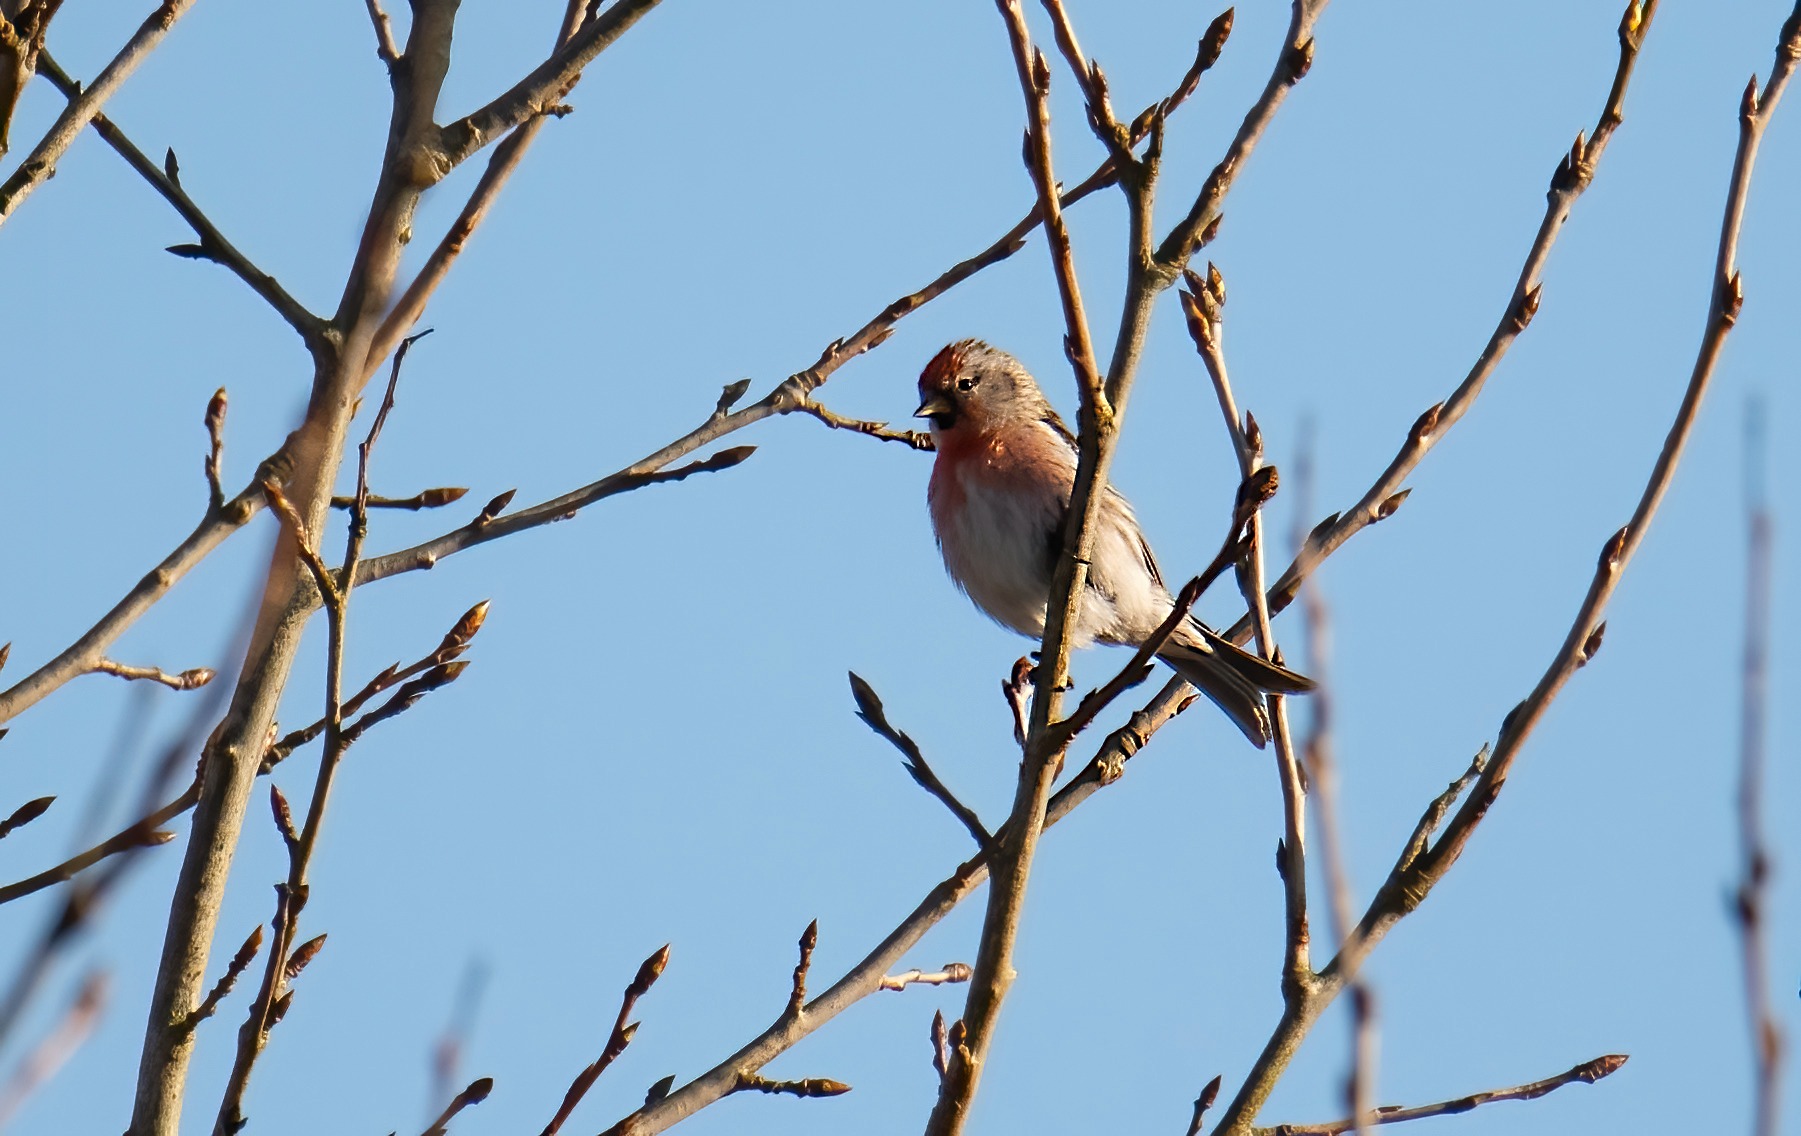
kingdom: Animalia
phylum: Chordata
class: Aves
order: Passeriformes
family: Fringillidae
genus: Linaria
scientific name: Linaria cannabina
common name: Tornirisk
